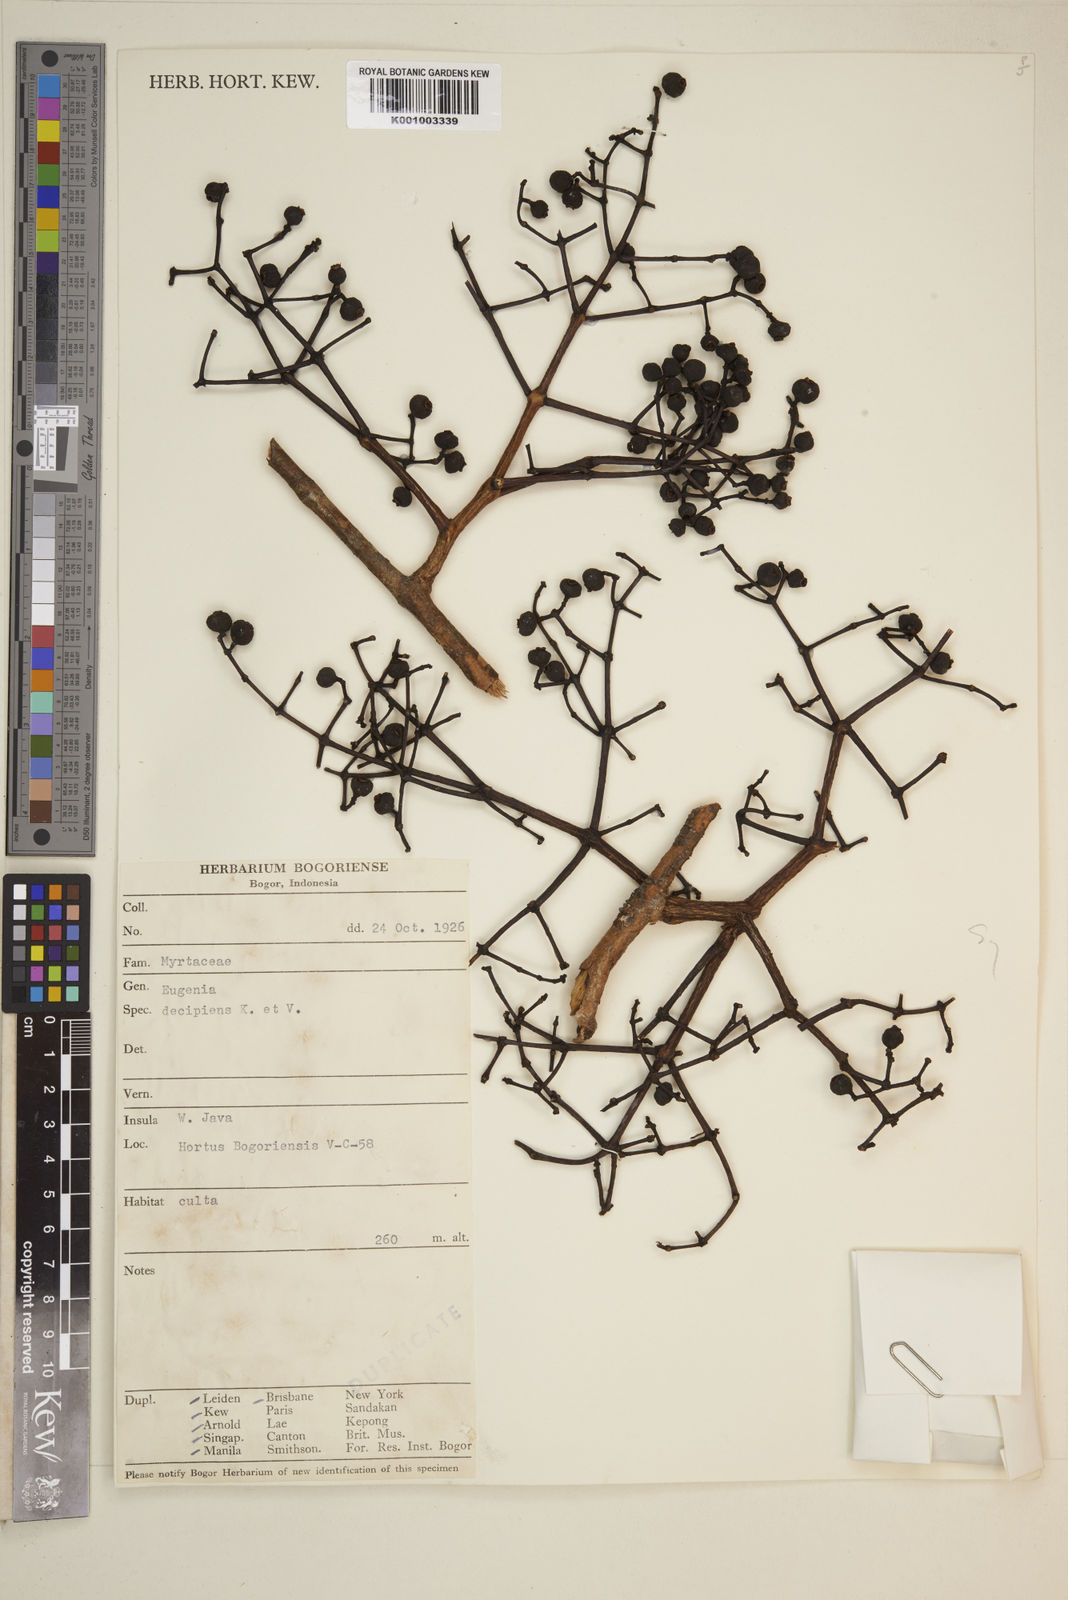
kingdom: Plantae
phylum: Tracheophyta
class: Magnoliopsida
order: Myrtales
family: Myrtaceae
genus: Syzygium
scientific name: Syzygium decipiens
